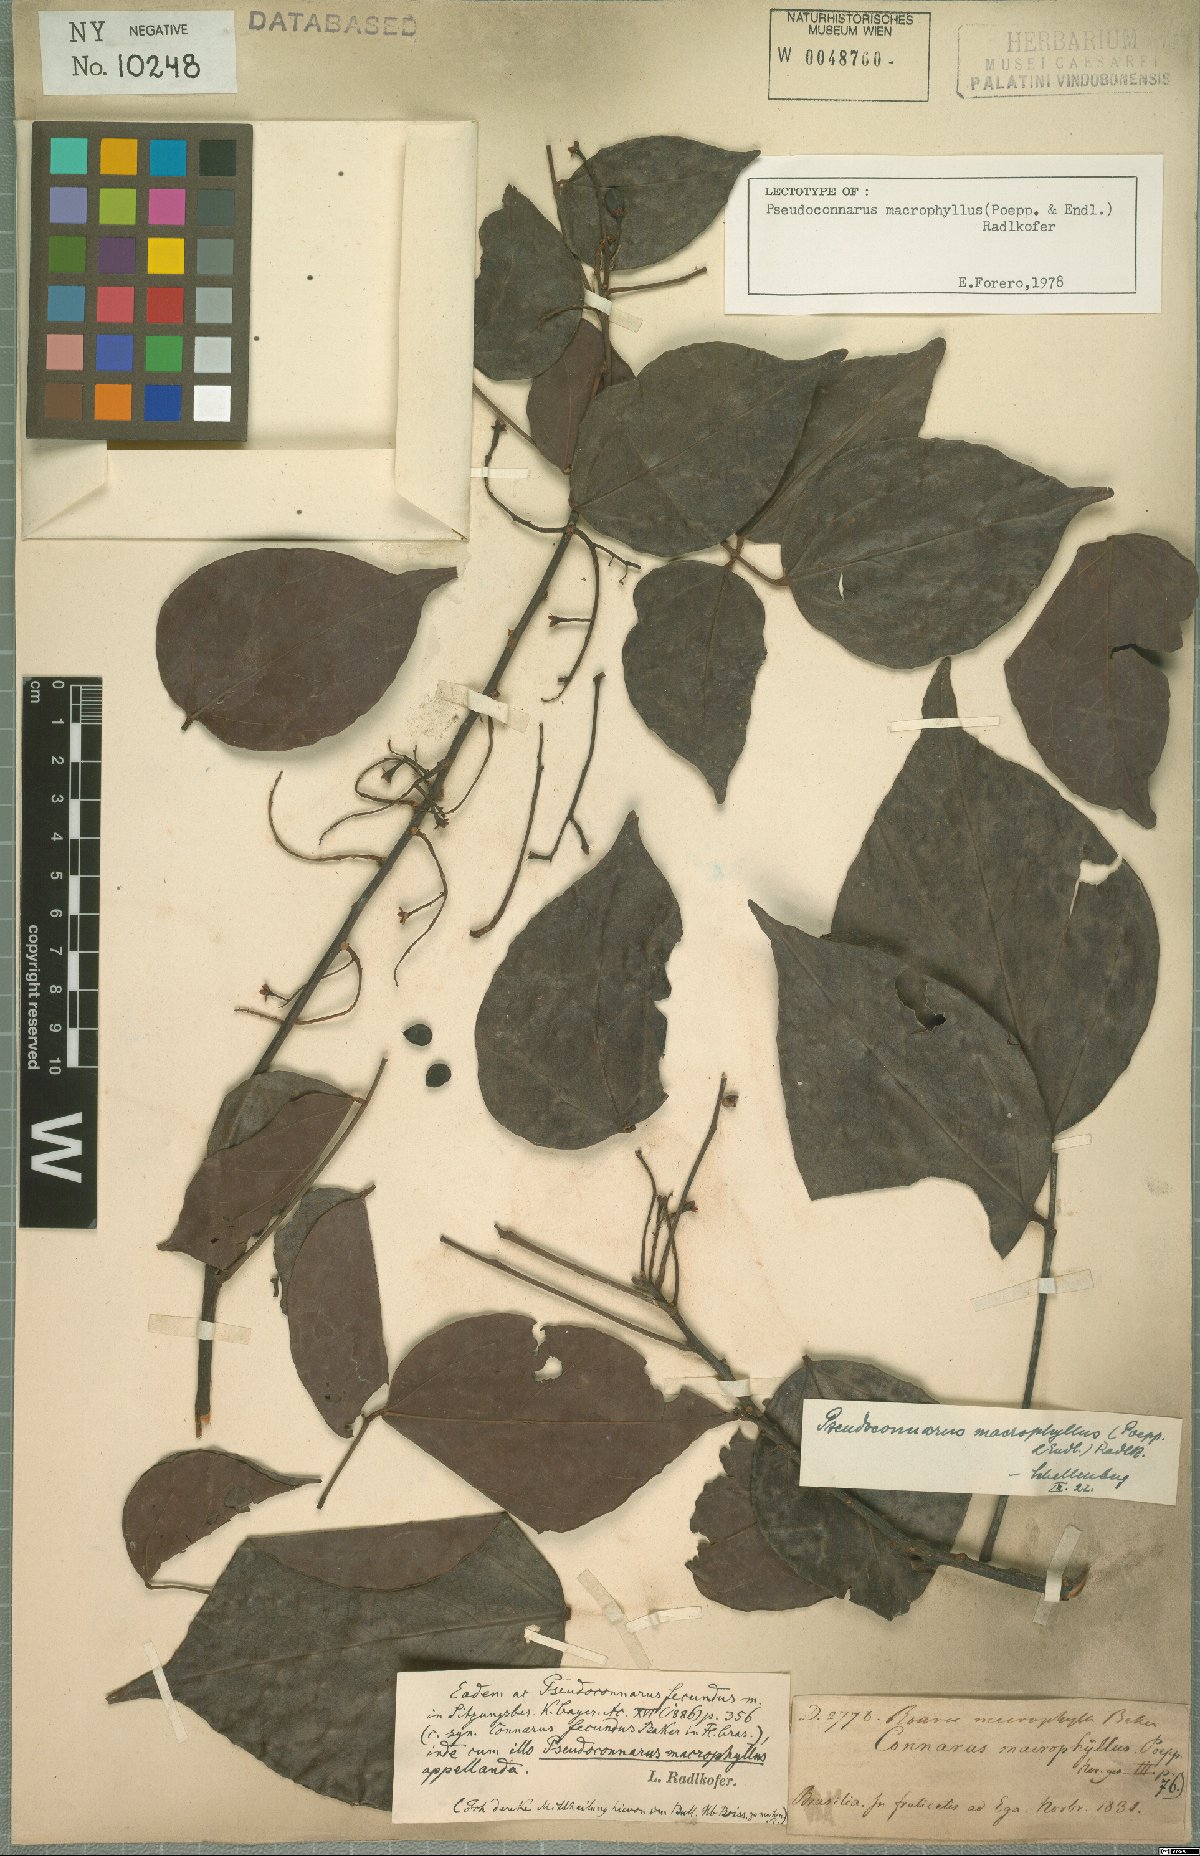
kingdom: Plantae
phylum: Tracheophyta
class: Magnoliopsida
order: Oxalidales
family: Connaraceae
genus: Pseudoconnarus
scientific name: Pseudoconnarus macrophyllus
